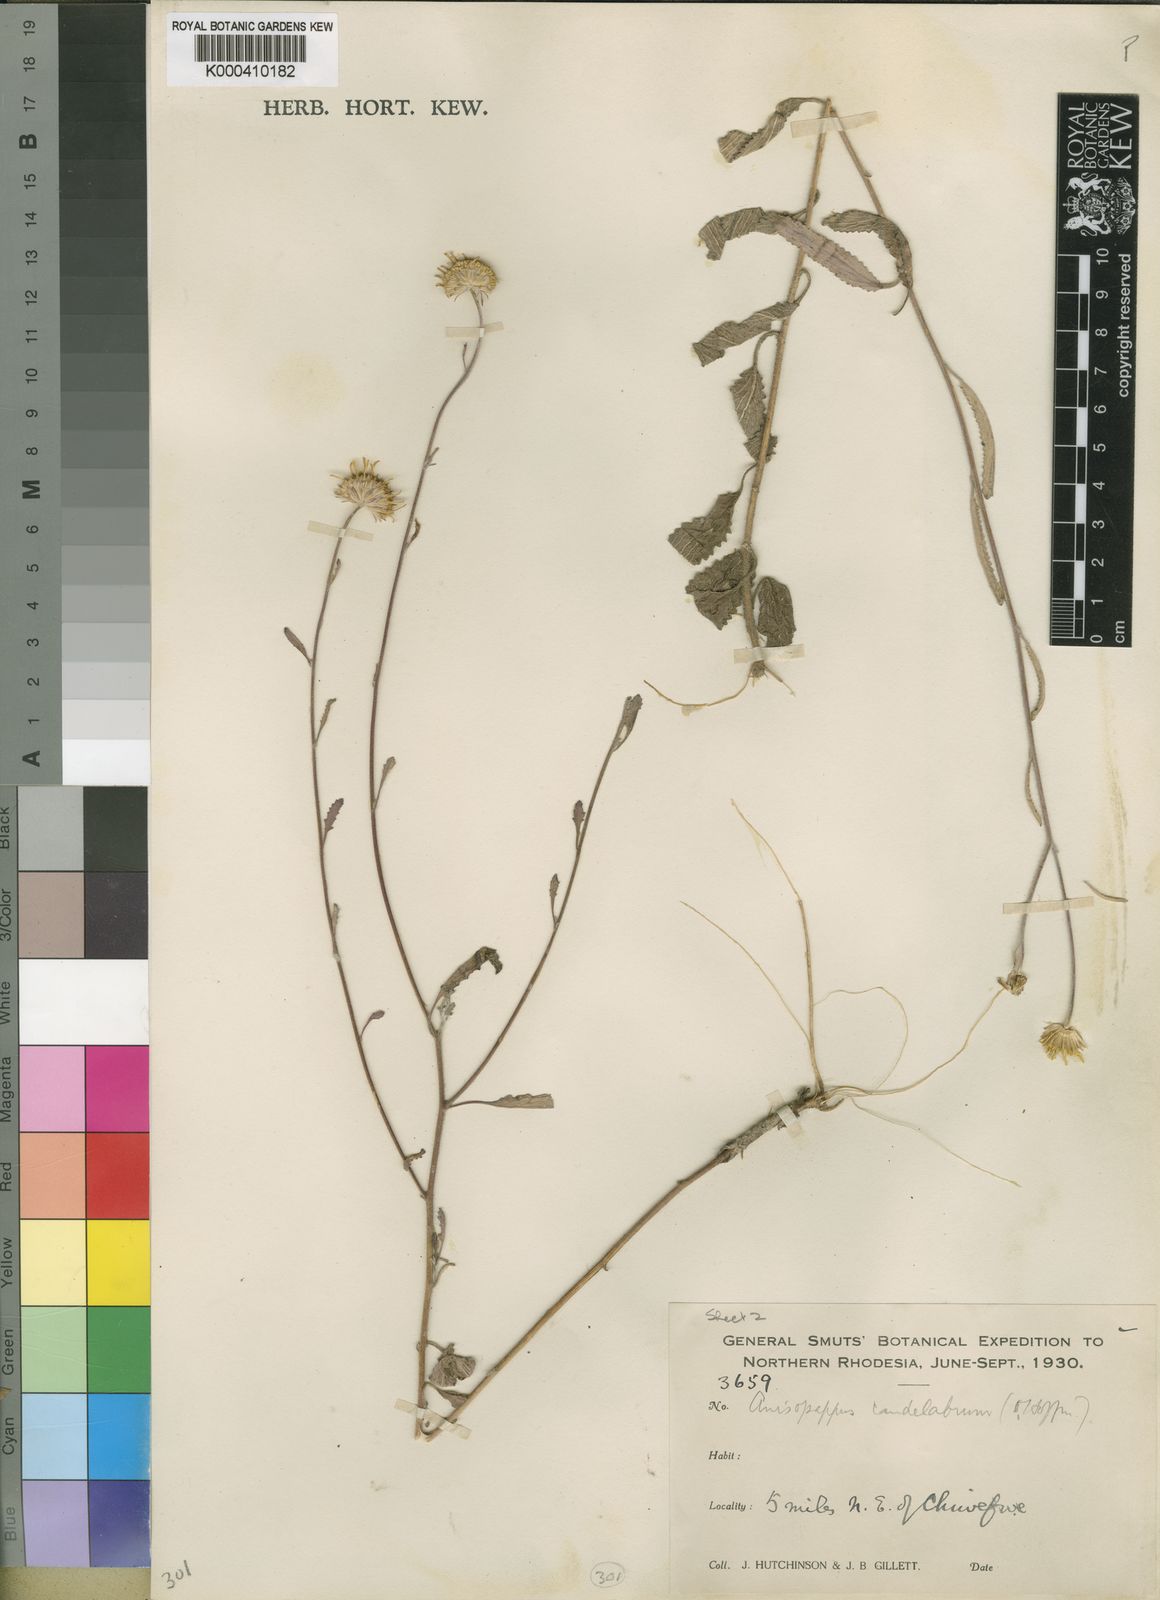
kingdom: Plantae
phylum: Tracheophyta
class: Magnoliopsida
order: Asterales
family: Asteraceae
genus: Anisopappus
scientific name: Anisopappus chinensis
